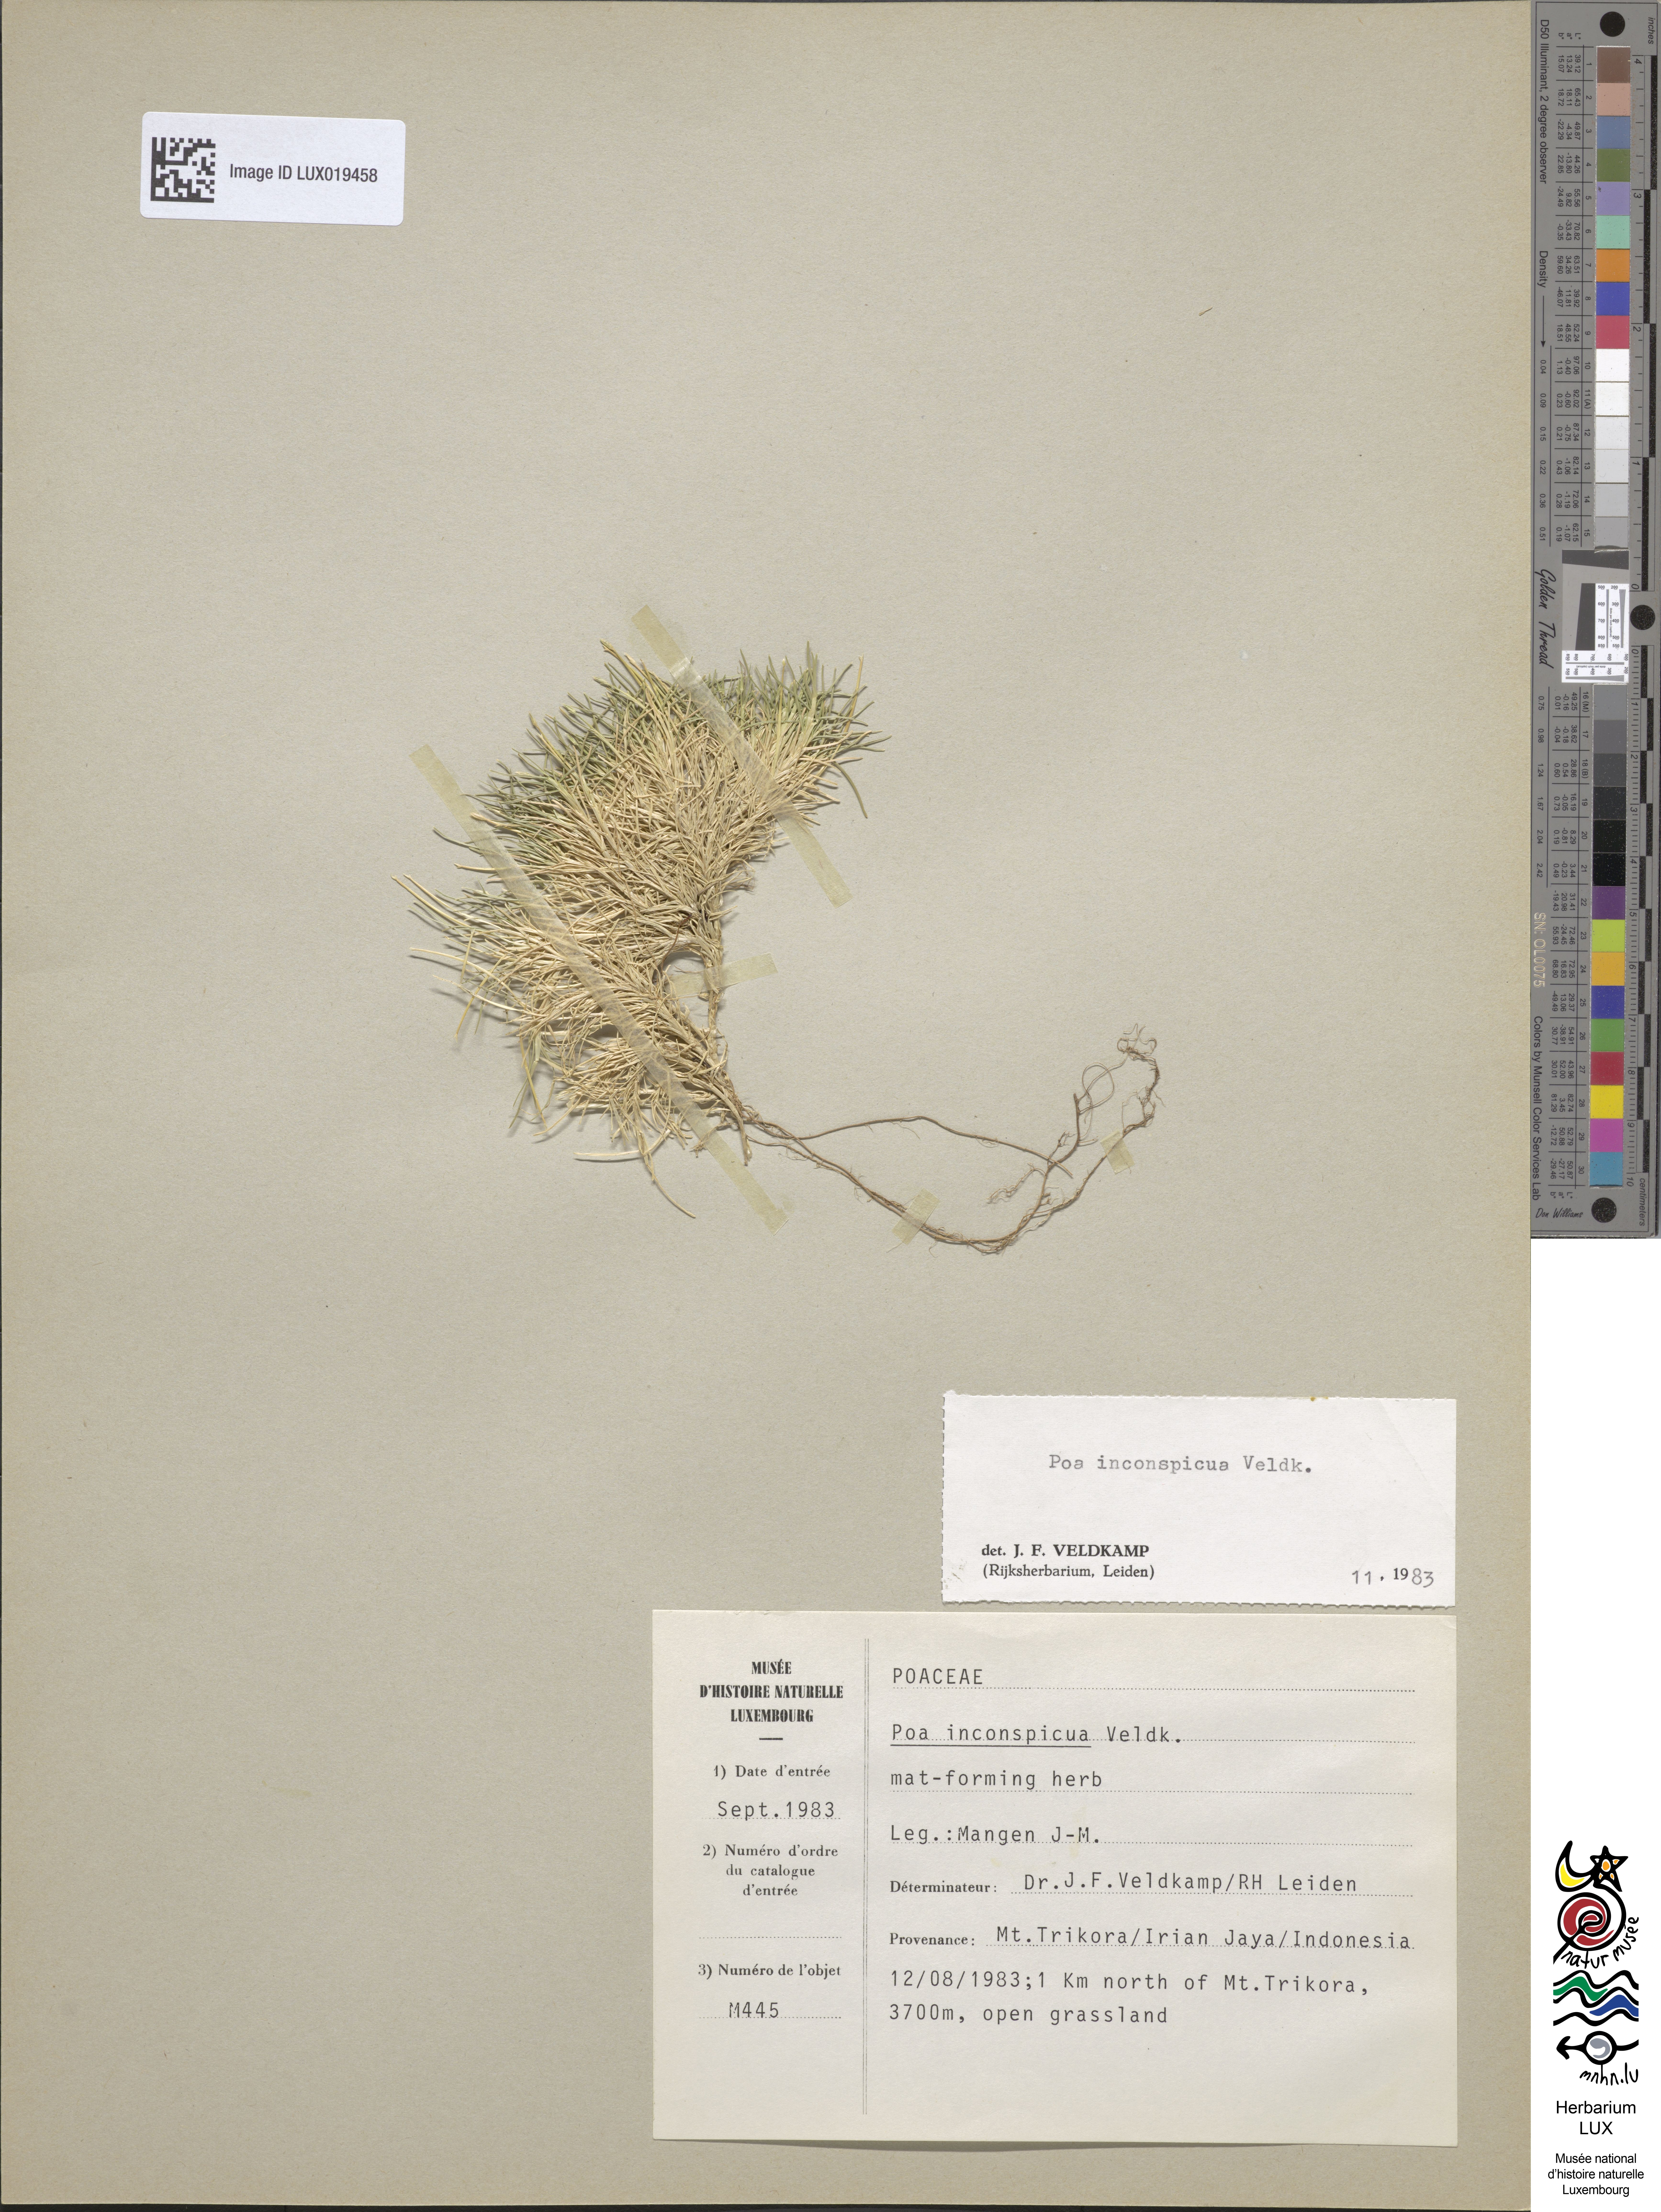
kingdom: Plantae
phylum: Tracheophyta
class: Liliopsida
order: Poales
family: Poaceae
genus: Poa
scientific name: Poa inconspicua
